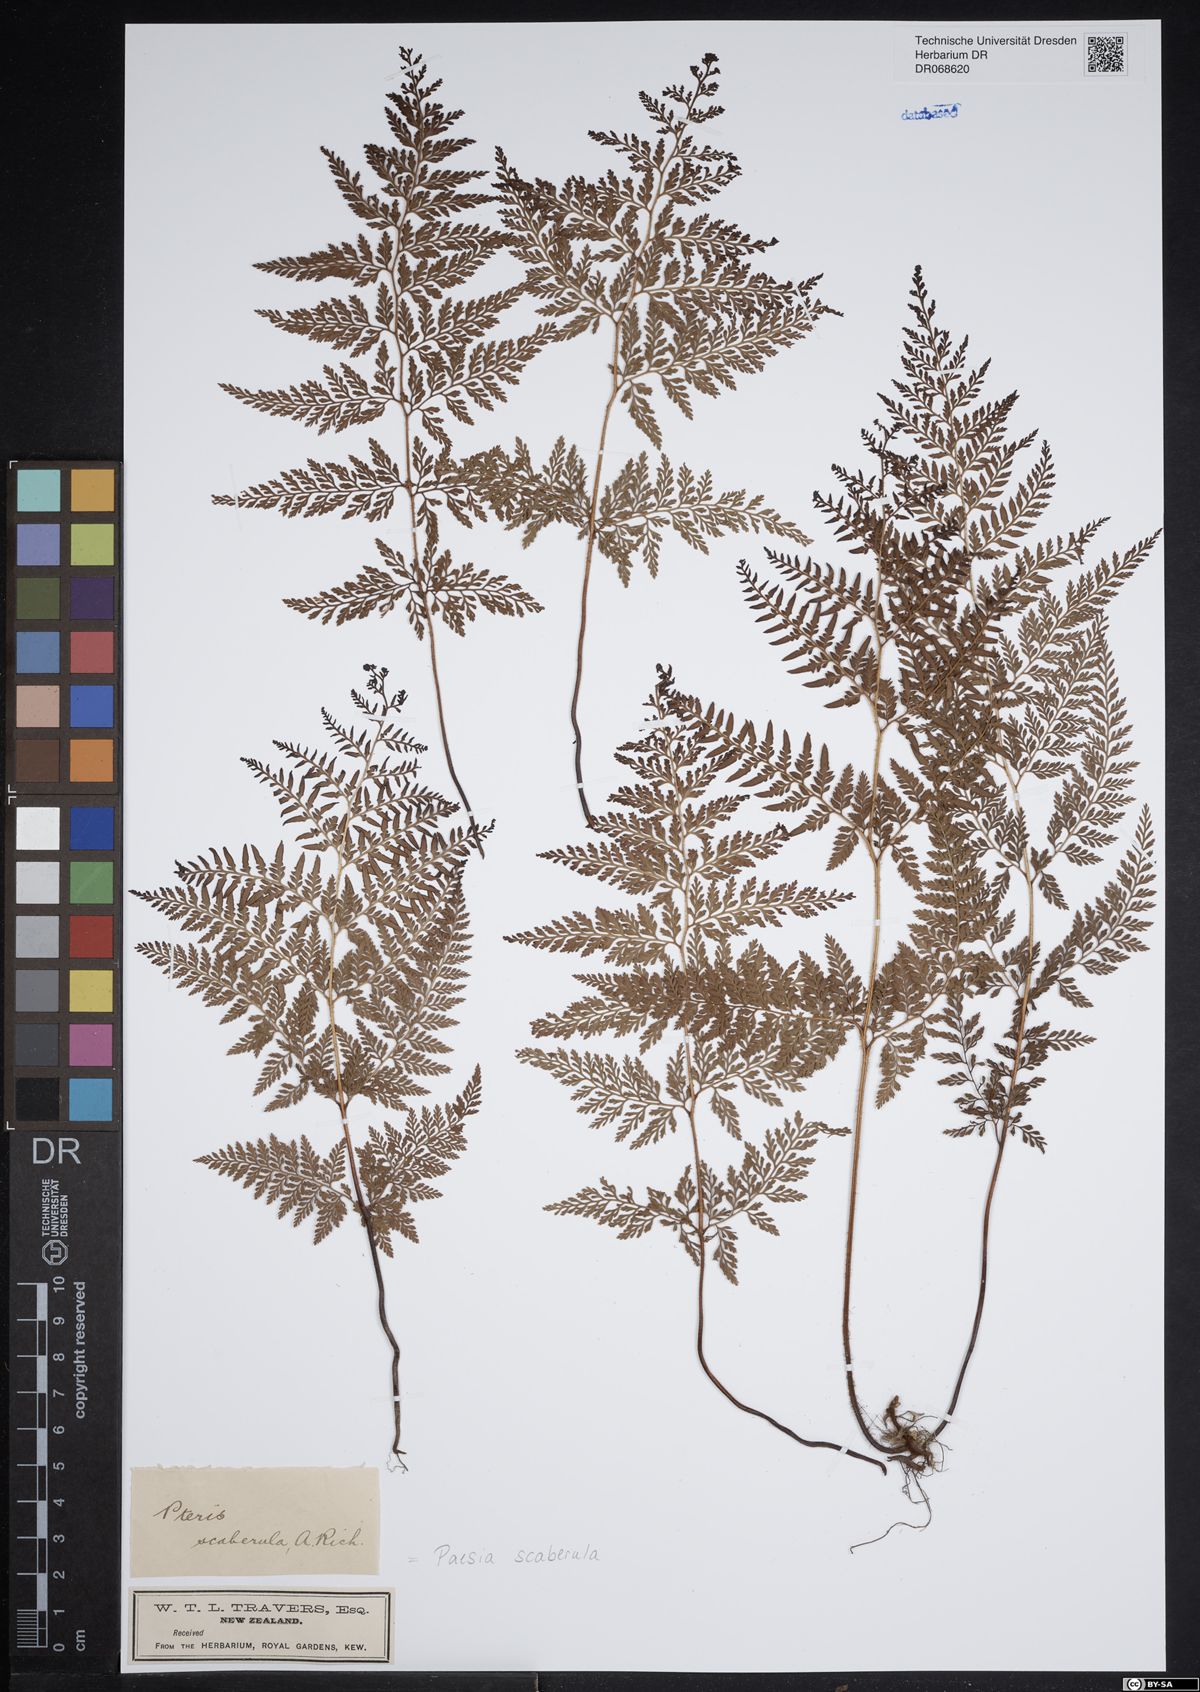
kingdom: Plantae
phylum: Tracheophyta
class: Polypodiopsida
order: Polypodiales
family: Dennstaedtiaceae
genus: Paesia
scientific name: Paesia scaberula
